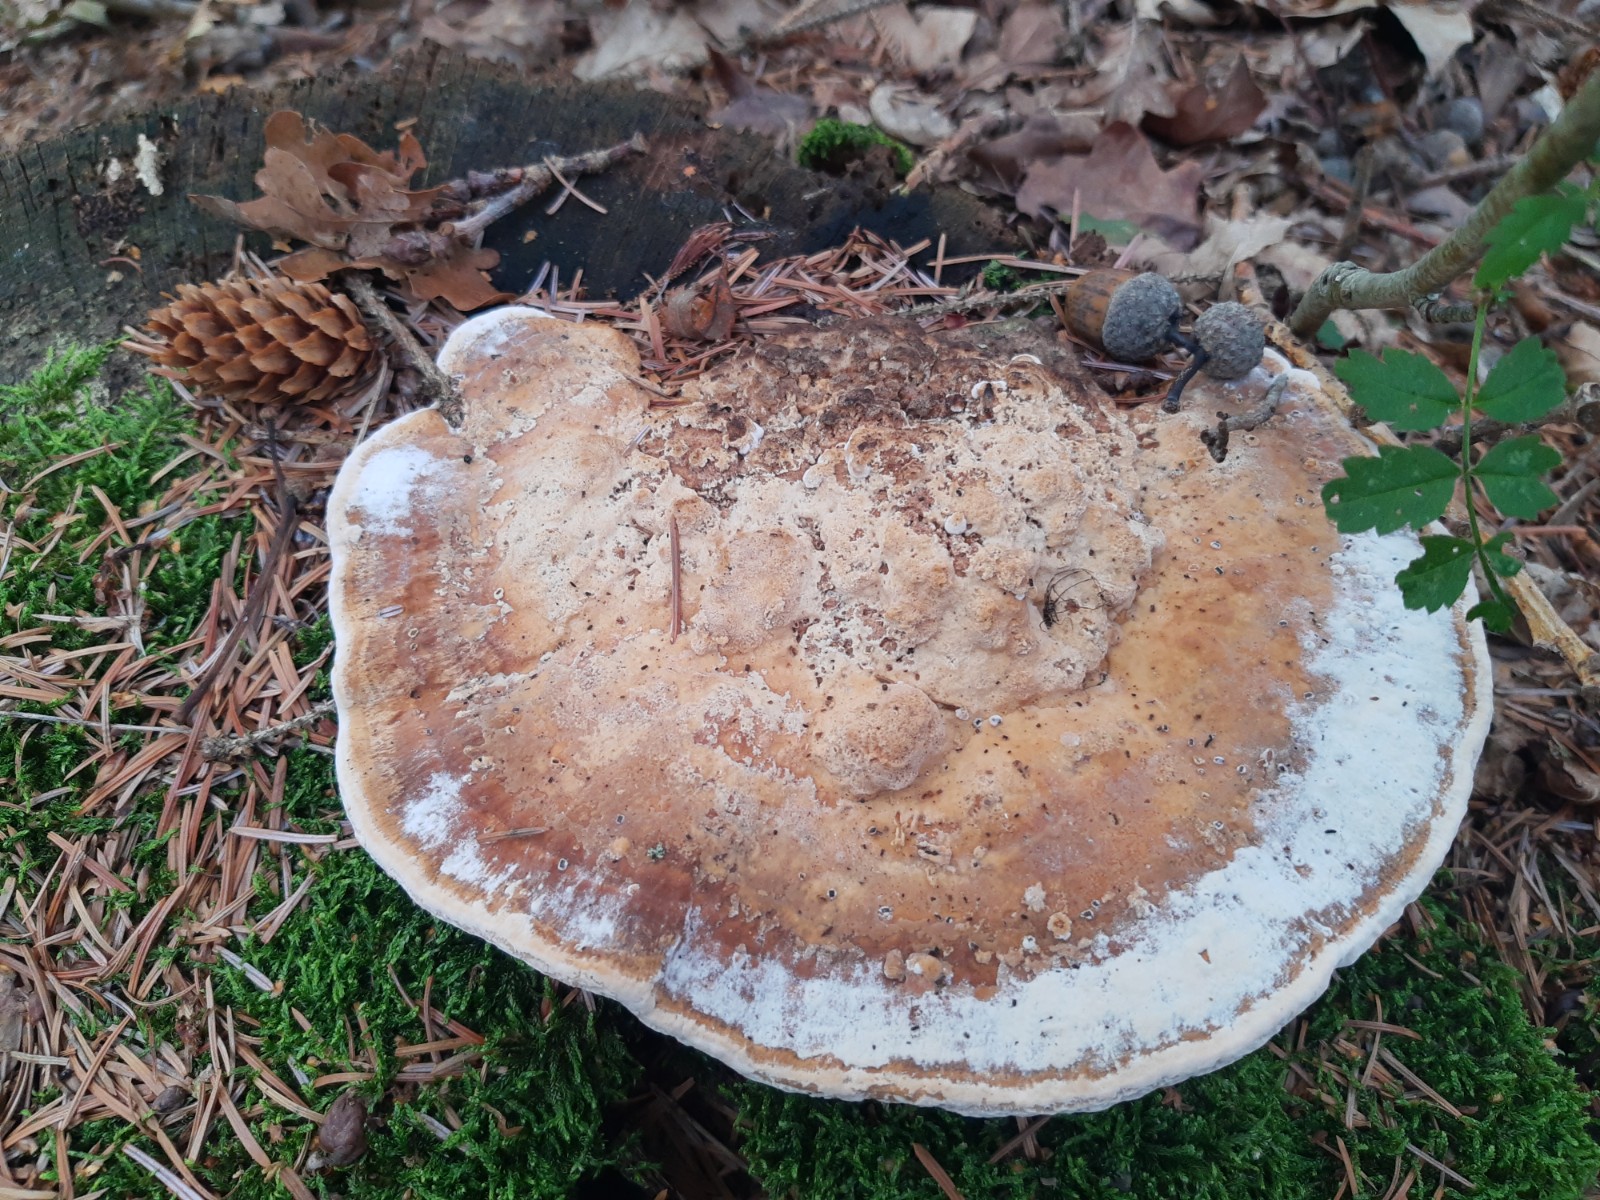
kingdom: Fungi
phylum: Basidiomycota
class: Agaricomycetes
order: Polyporales
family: Fomitopsidaceae
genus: Daedalea
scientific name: Daedalea quercina
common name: ege-labyrintsvamp
